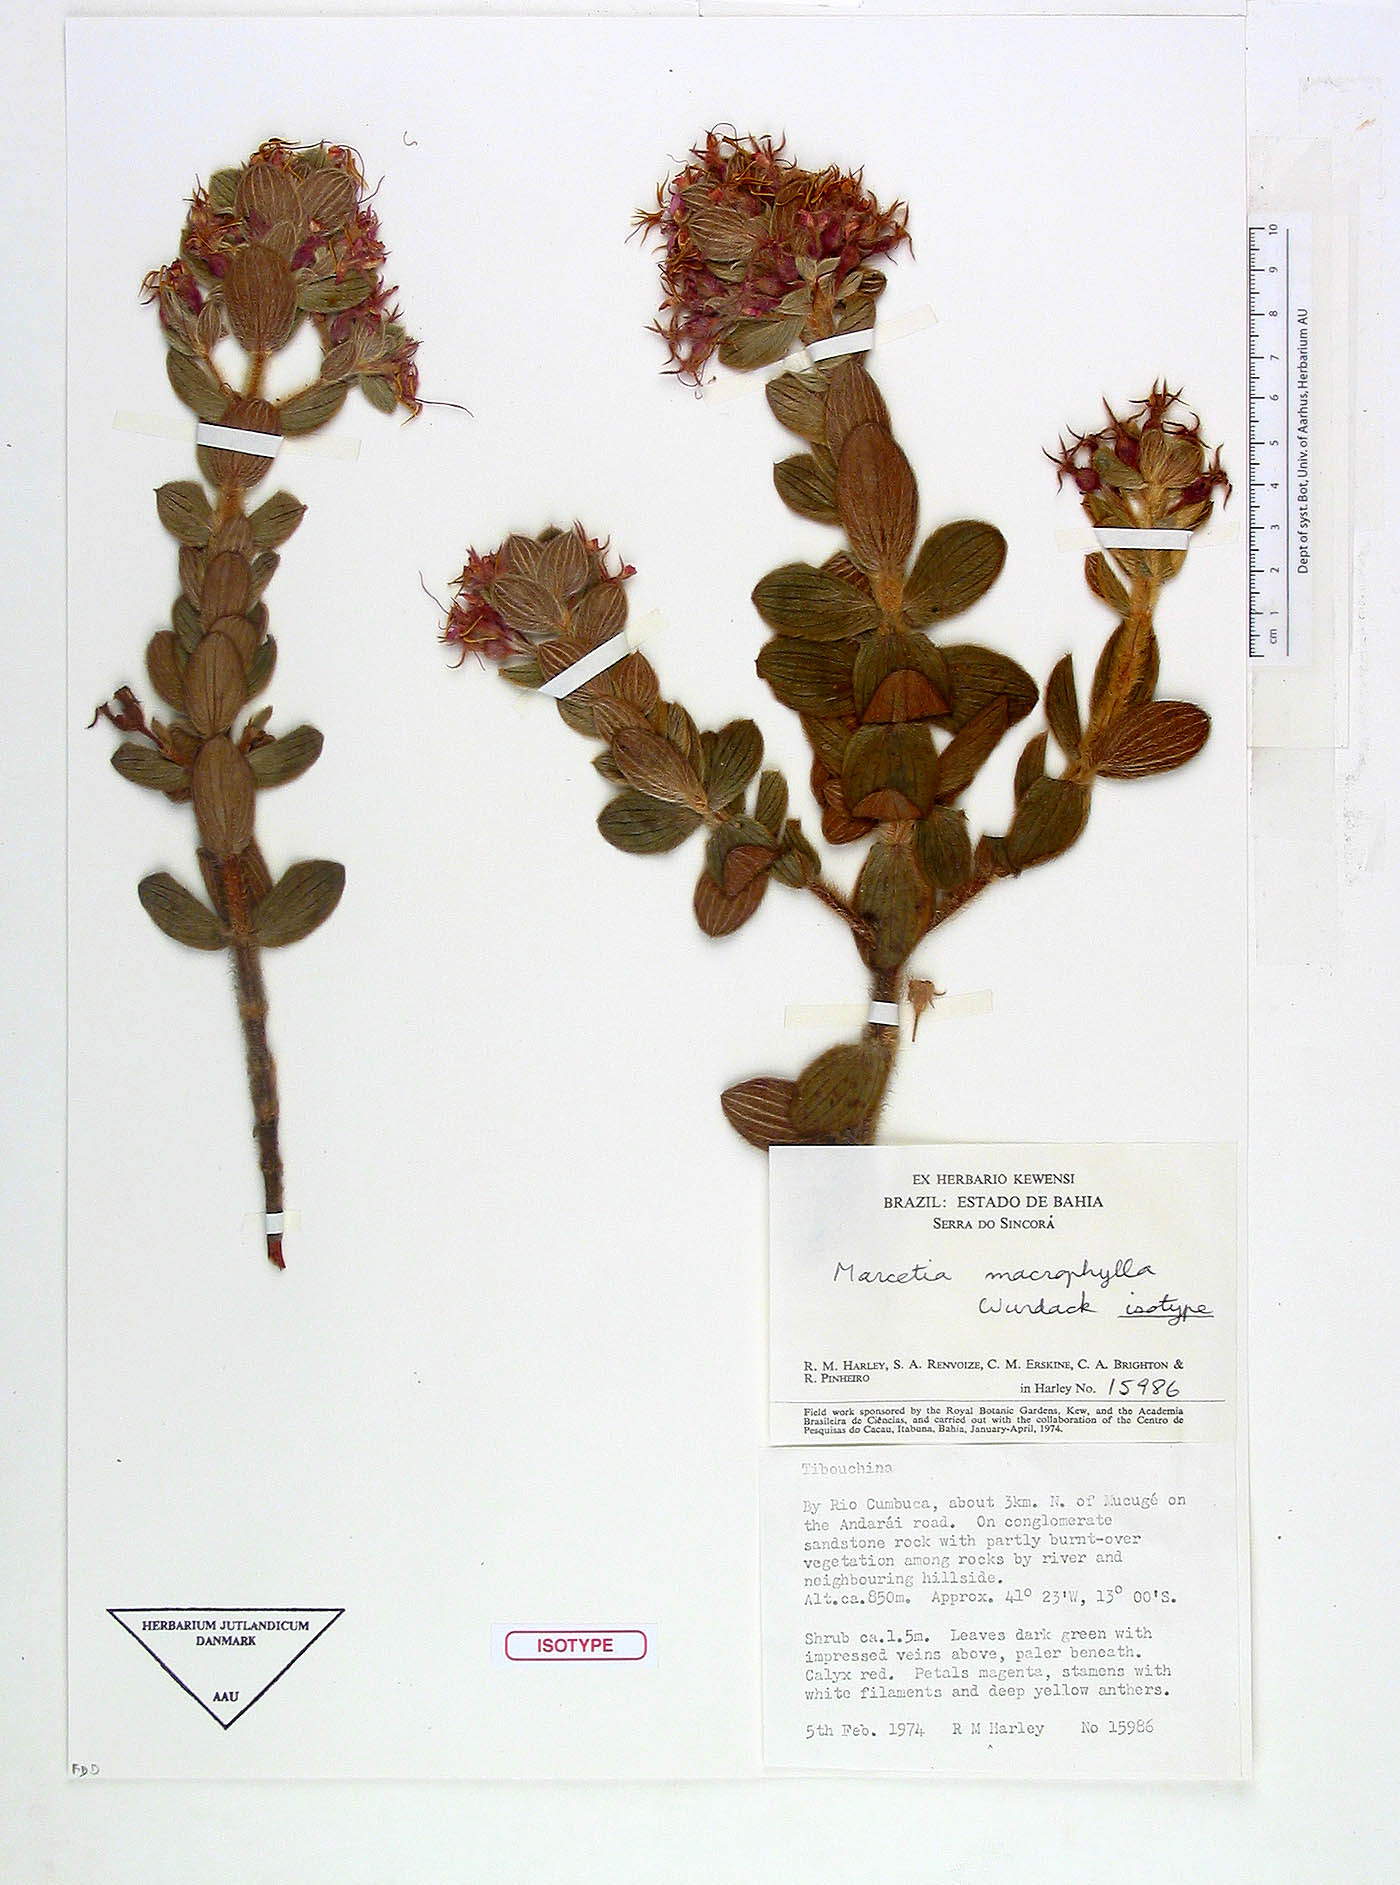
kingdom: Plantae
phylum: Tracheophyta
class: Magnoliopsida
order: Myrtales
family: Melastomataceae
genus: Marcetia
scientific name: Marcetia macrophylla
